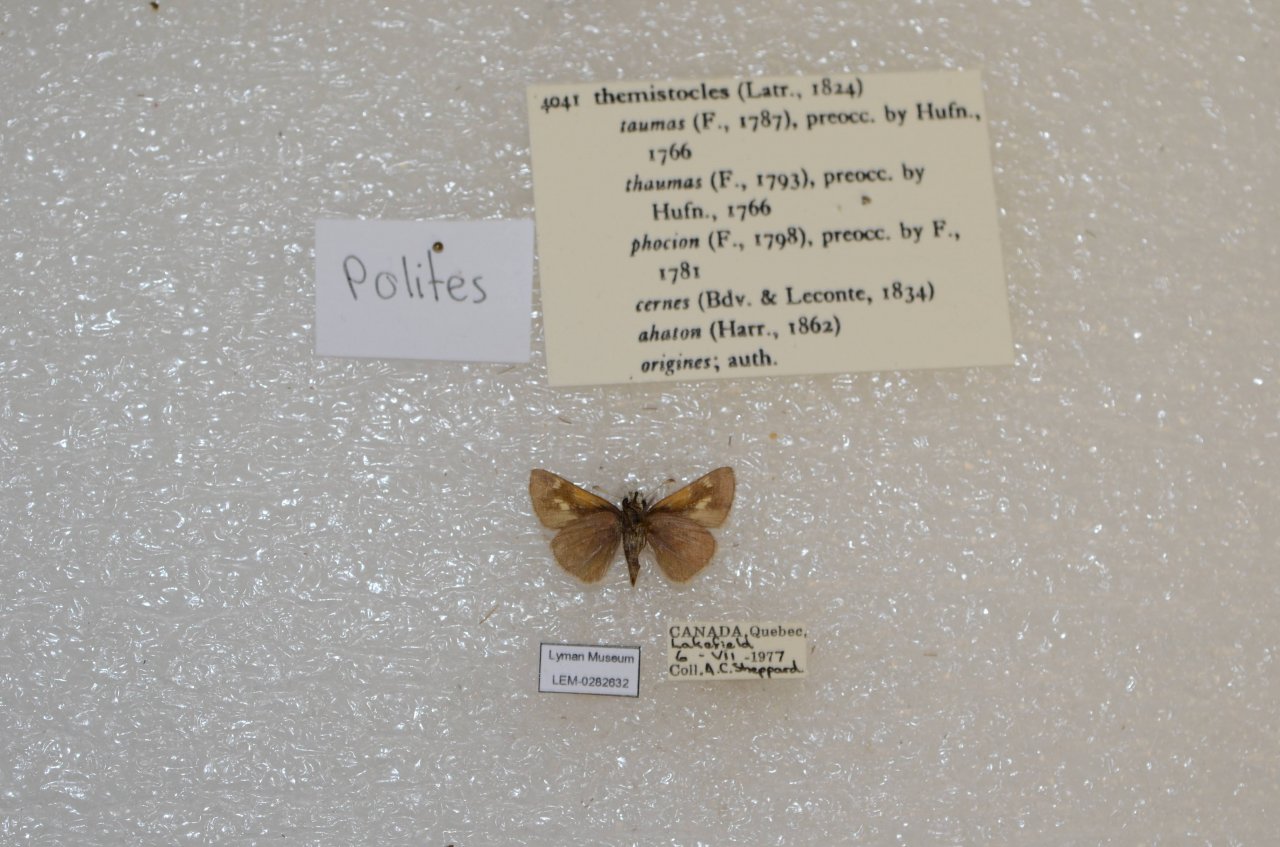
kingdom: Animalia
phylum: Arthropoda
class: Insecta
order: Lepidoptera
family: Hesperiidae
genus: Polites
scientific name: Polites themistocles
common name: Tawny-edged Skipper
